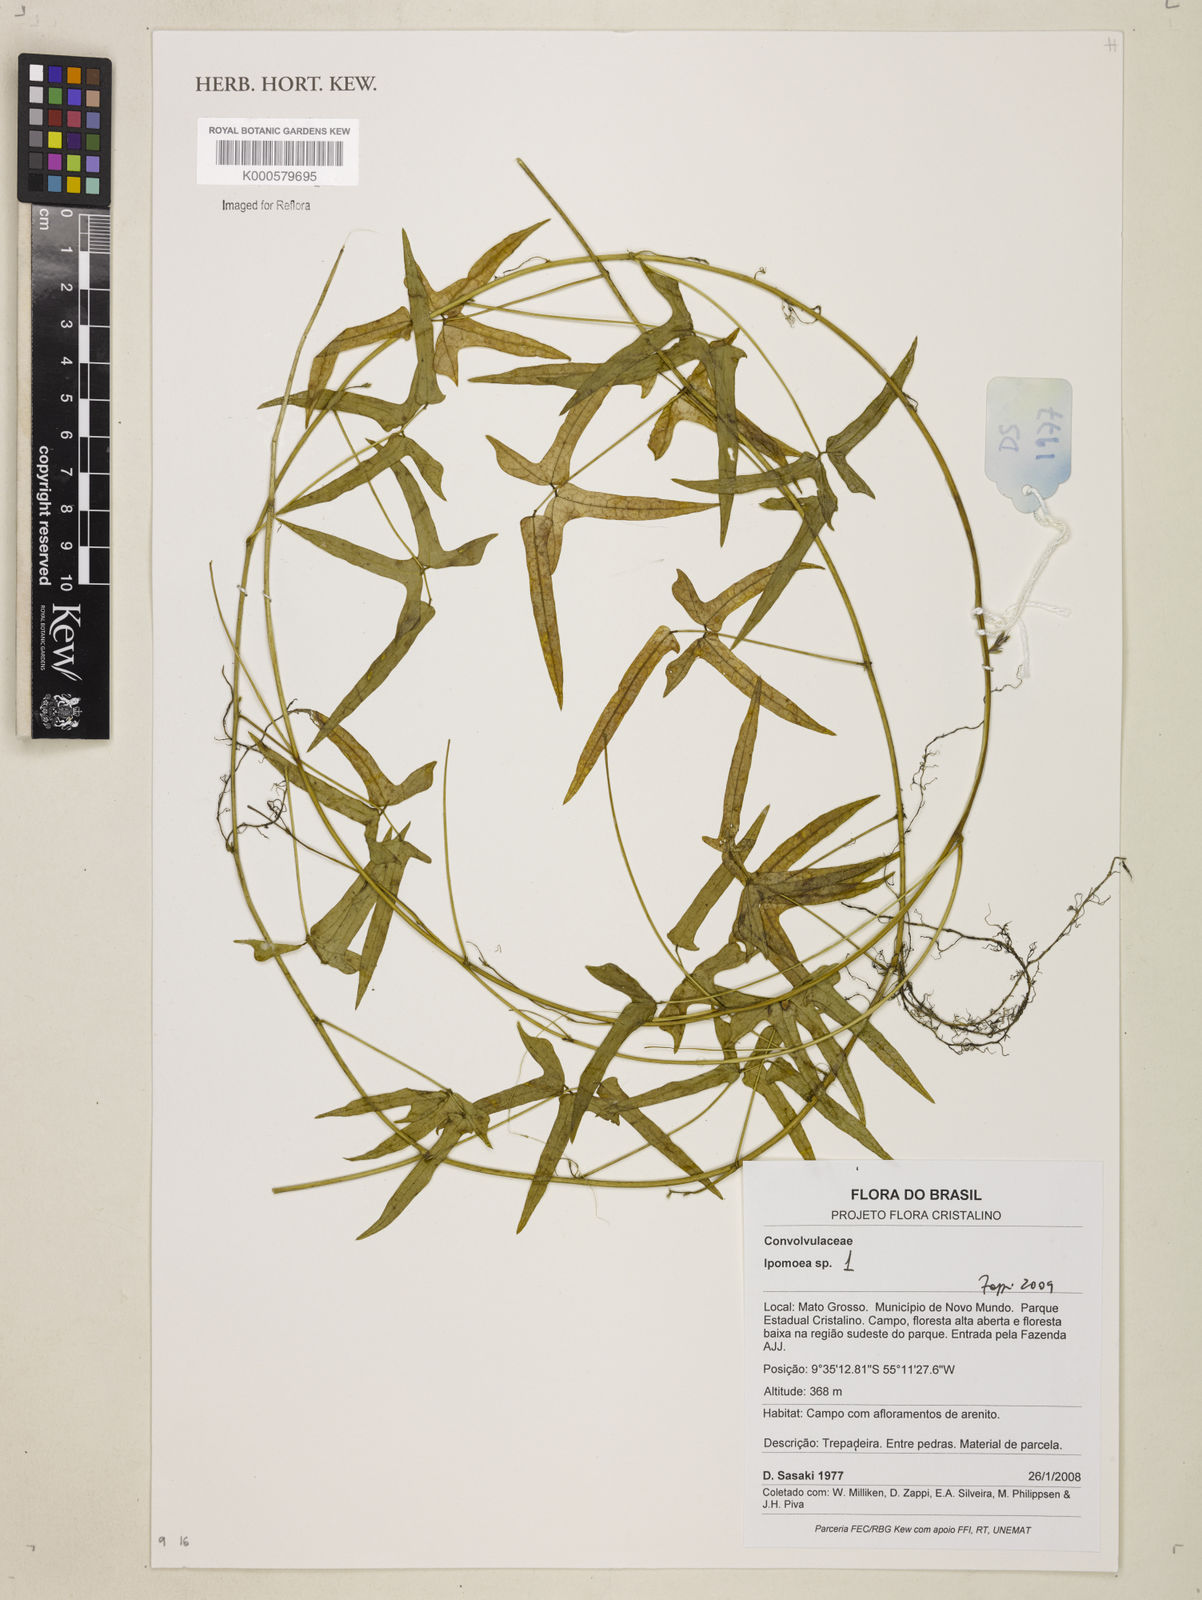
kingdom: Plantae
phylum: Tracheophyta
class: Magnoliopsida
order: Solanales
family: Convolvulaceae
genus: Ipomoea
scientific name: Ipomoea
